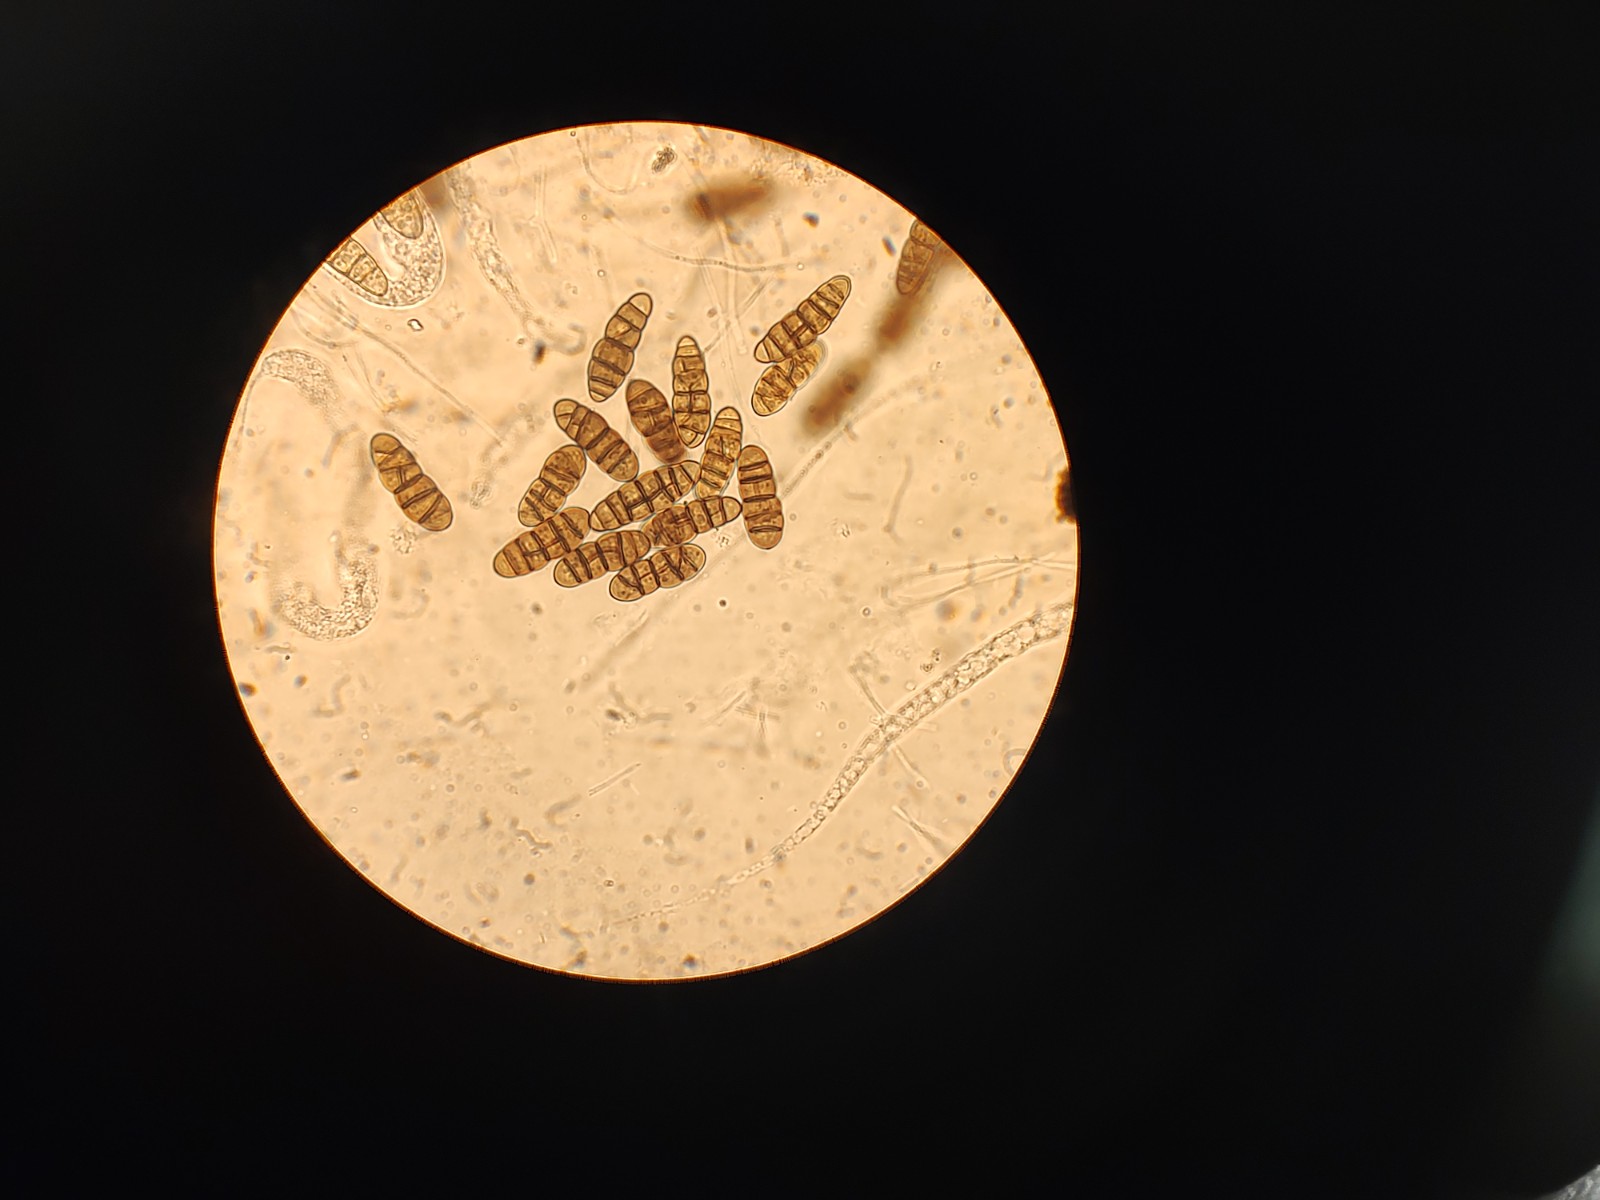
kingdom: Fungi
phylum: Ascomycota
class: Dothideomycetes
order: Pleosporales
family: Lophiostomataceae
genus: Lophiostoma
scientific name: Lophiostoma compressum
